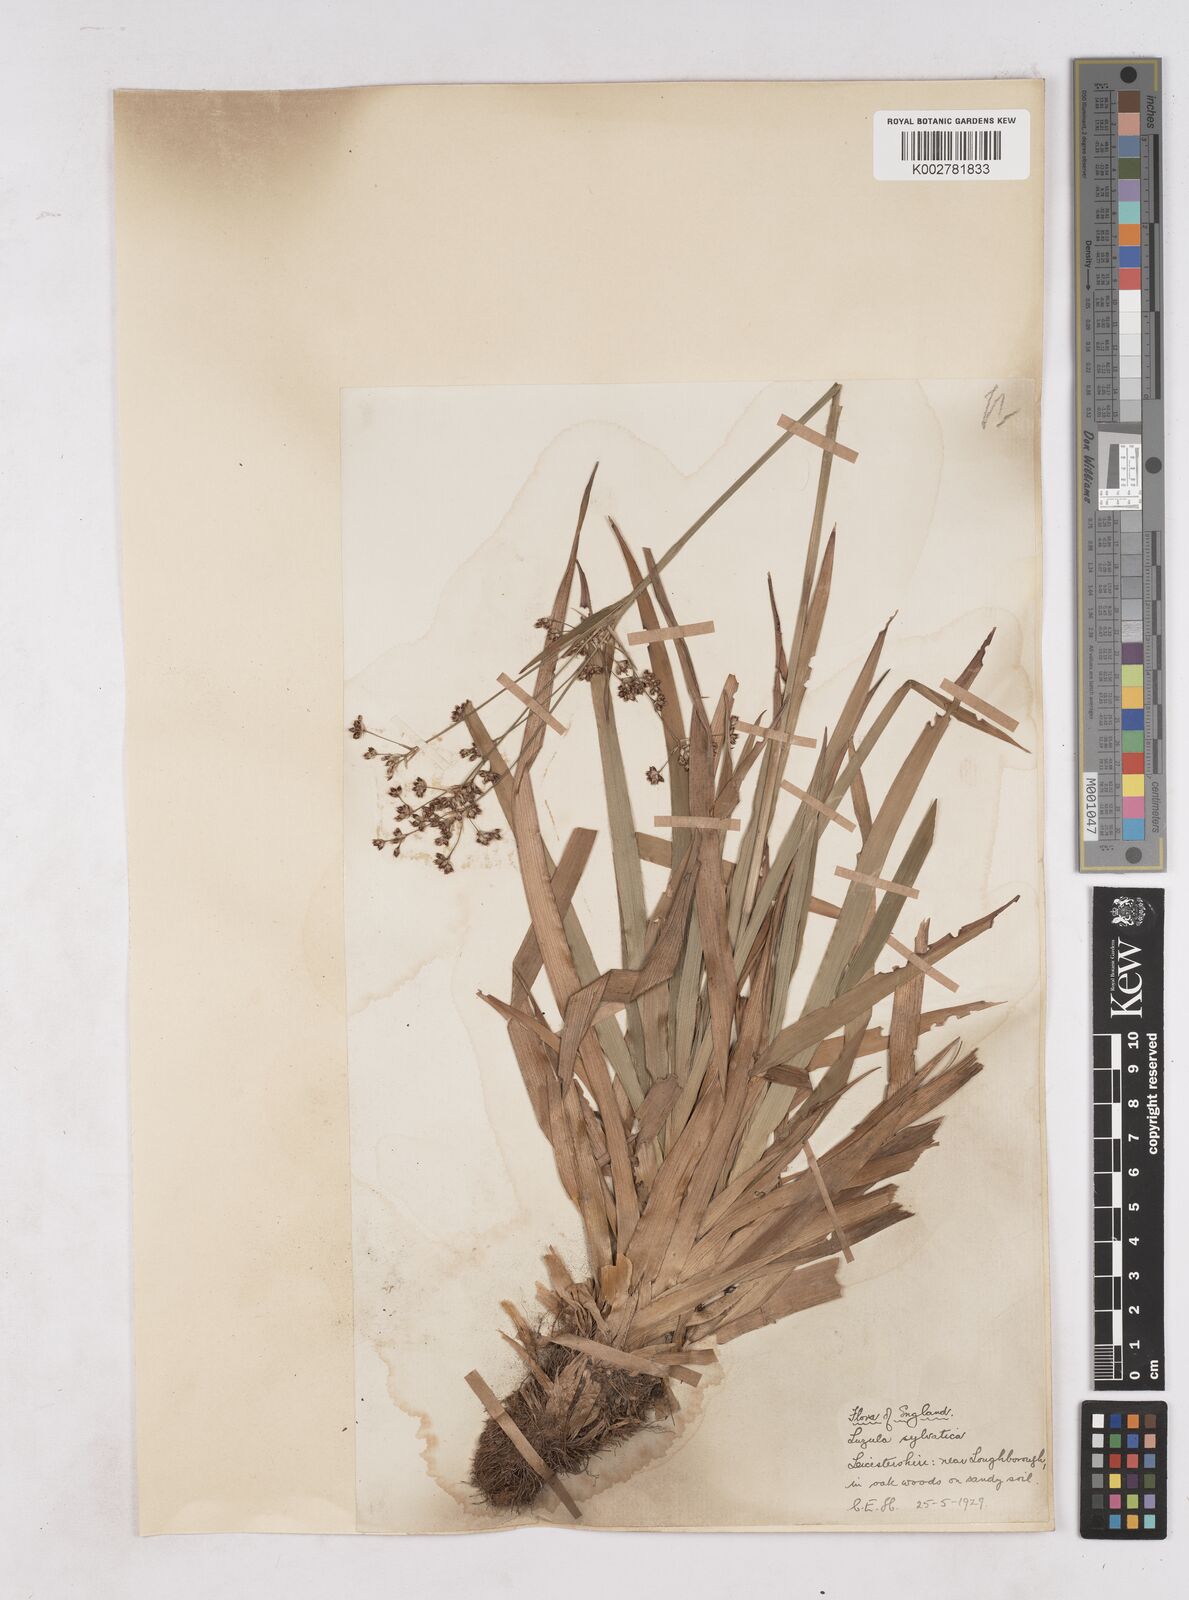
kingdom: Plantae
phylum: Tracheophyta
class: Liliopsida
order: Poales
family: Juncaceae
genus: Luzula
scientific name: Luzula sylvatica
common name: Great wood-rush
